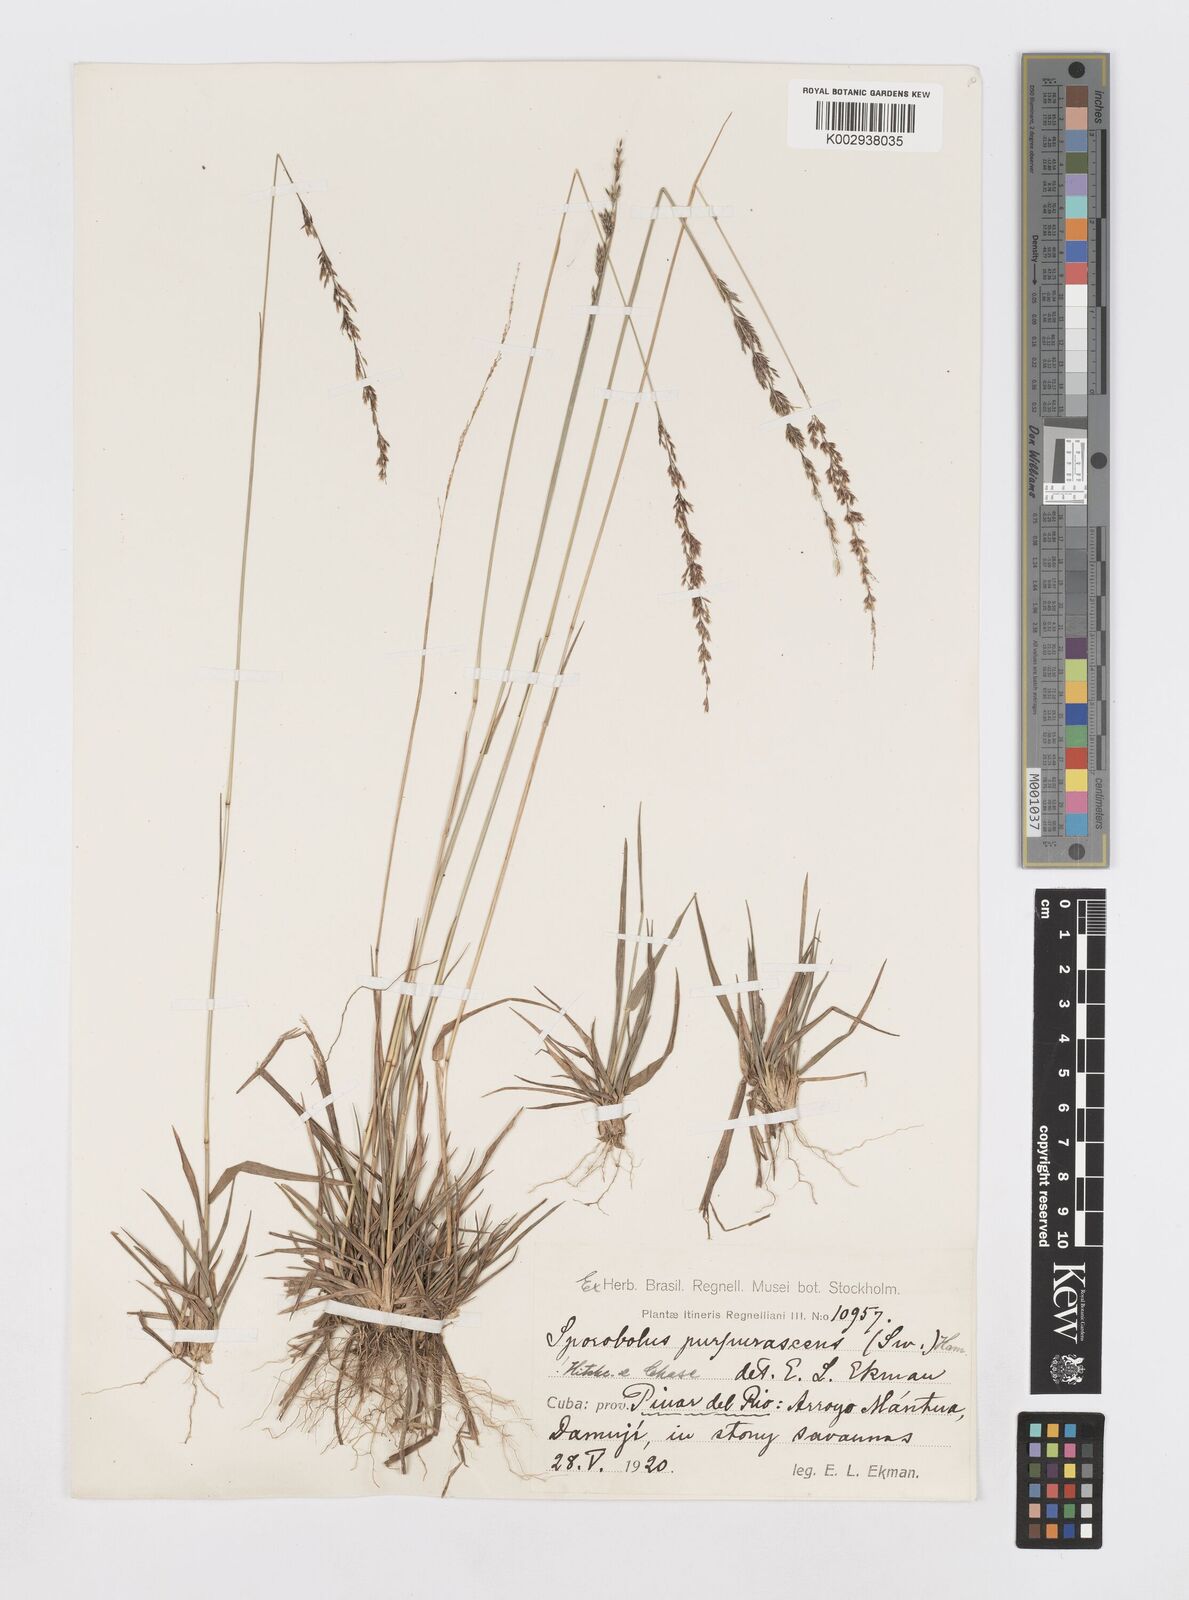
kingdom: Plantae
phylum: Tracheophyta
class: Liliopsida
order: Poales
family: Poaceae
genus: Sporobolus
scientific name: Sporobolus purpurascens
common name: Purple dropseed
